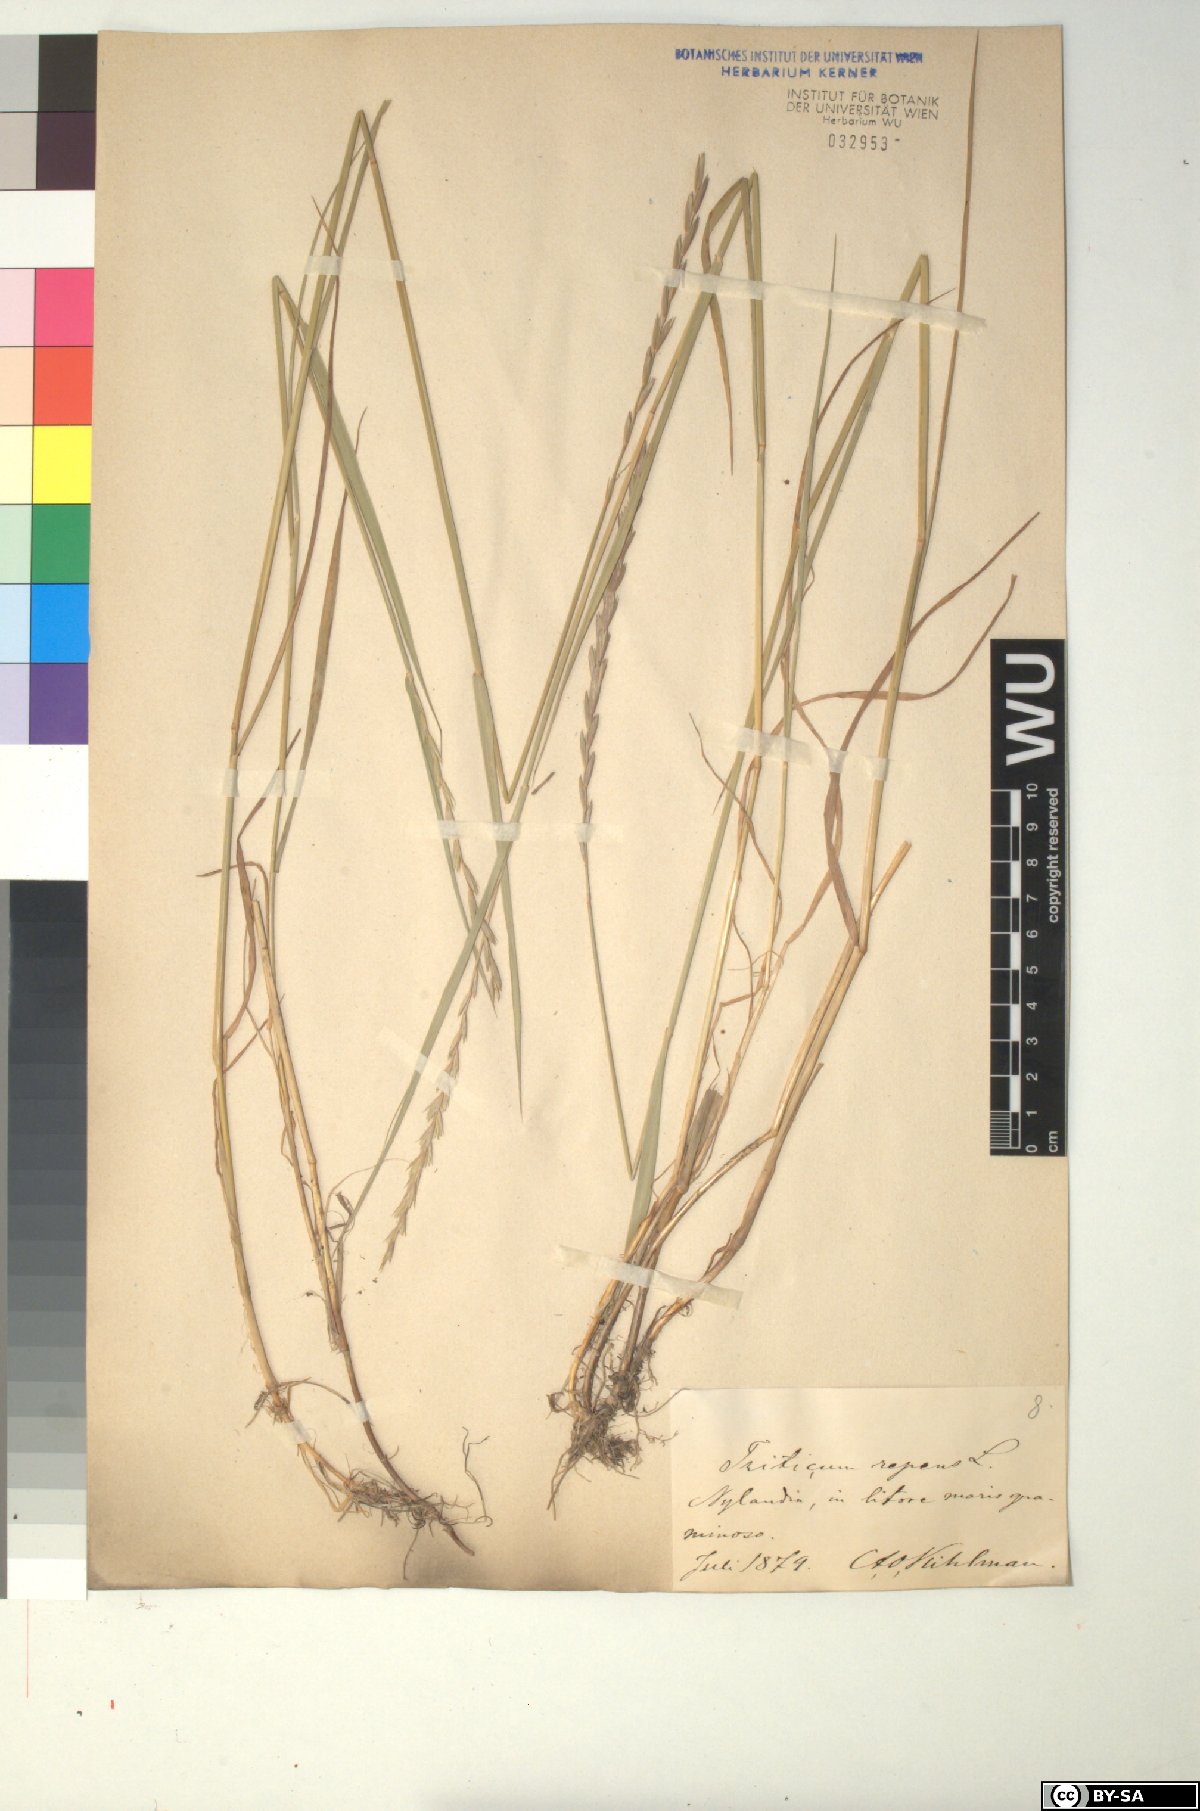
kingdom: Plantae
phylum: Tracheophyta
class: Liliopsida
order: Poales
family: Poaceae
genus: Elymus
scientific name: Elymus repens
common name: Quackgrass
